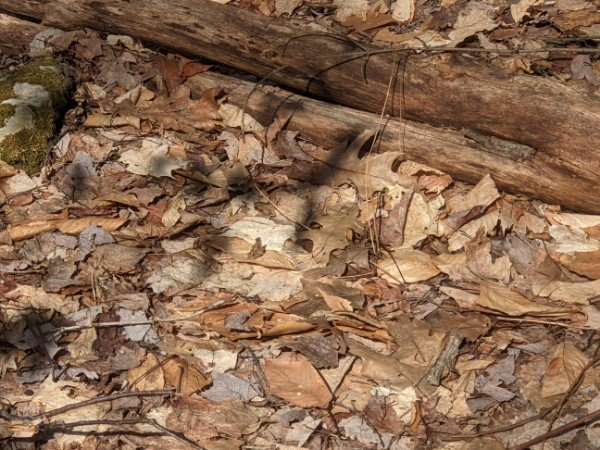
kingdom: Animalia
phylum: Arthropoda
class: Insecta
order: Lepidoptera
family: Nymphalidae
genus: Polygonia
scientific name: Polygonia comma
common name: Eastern Comma
